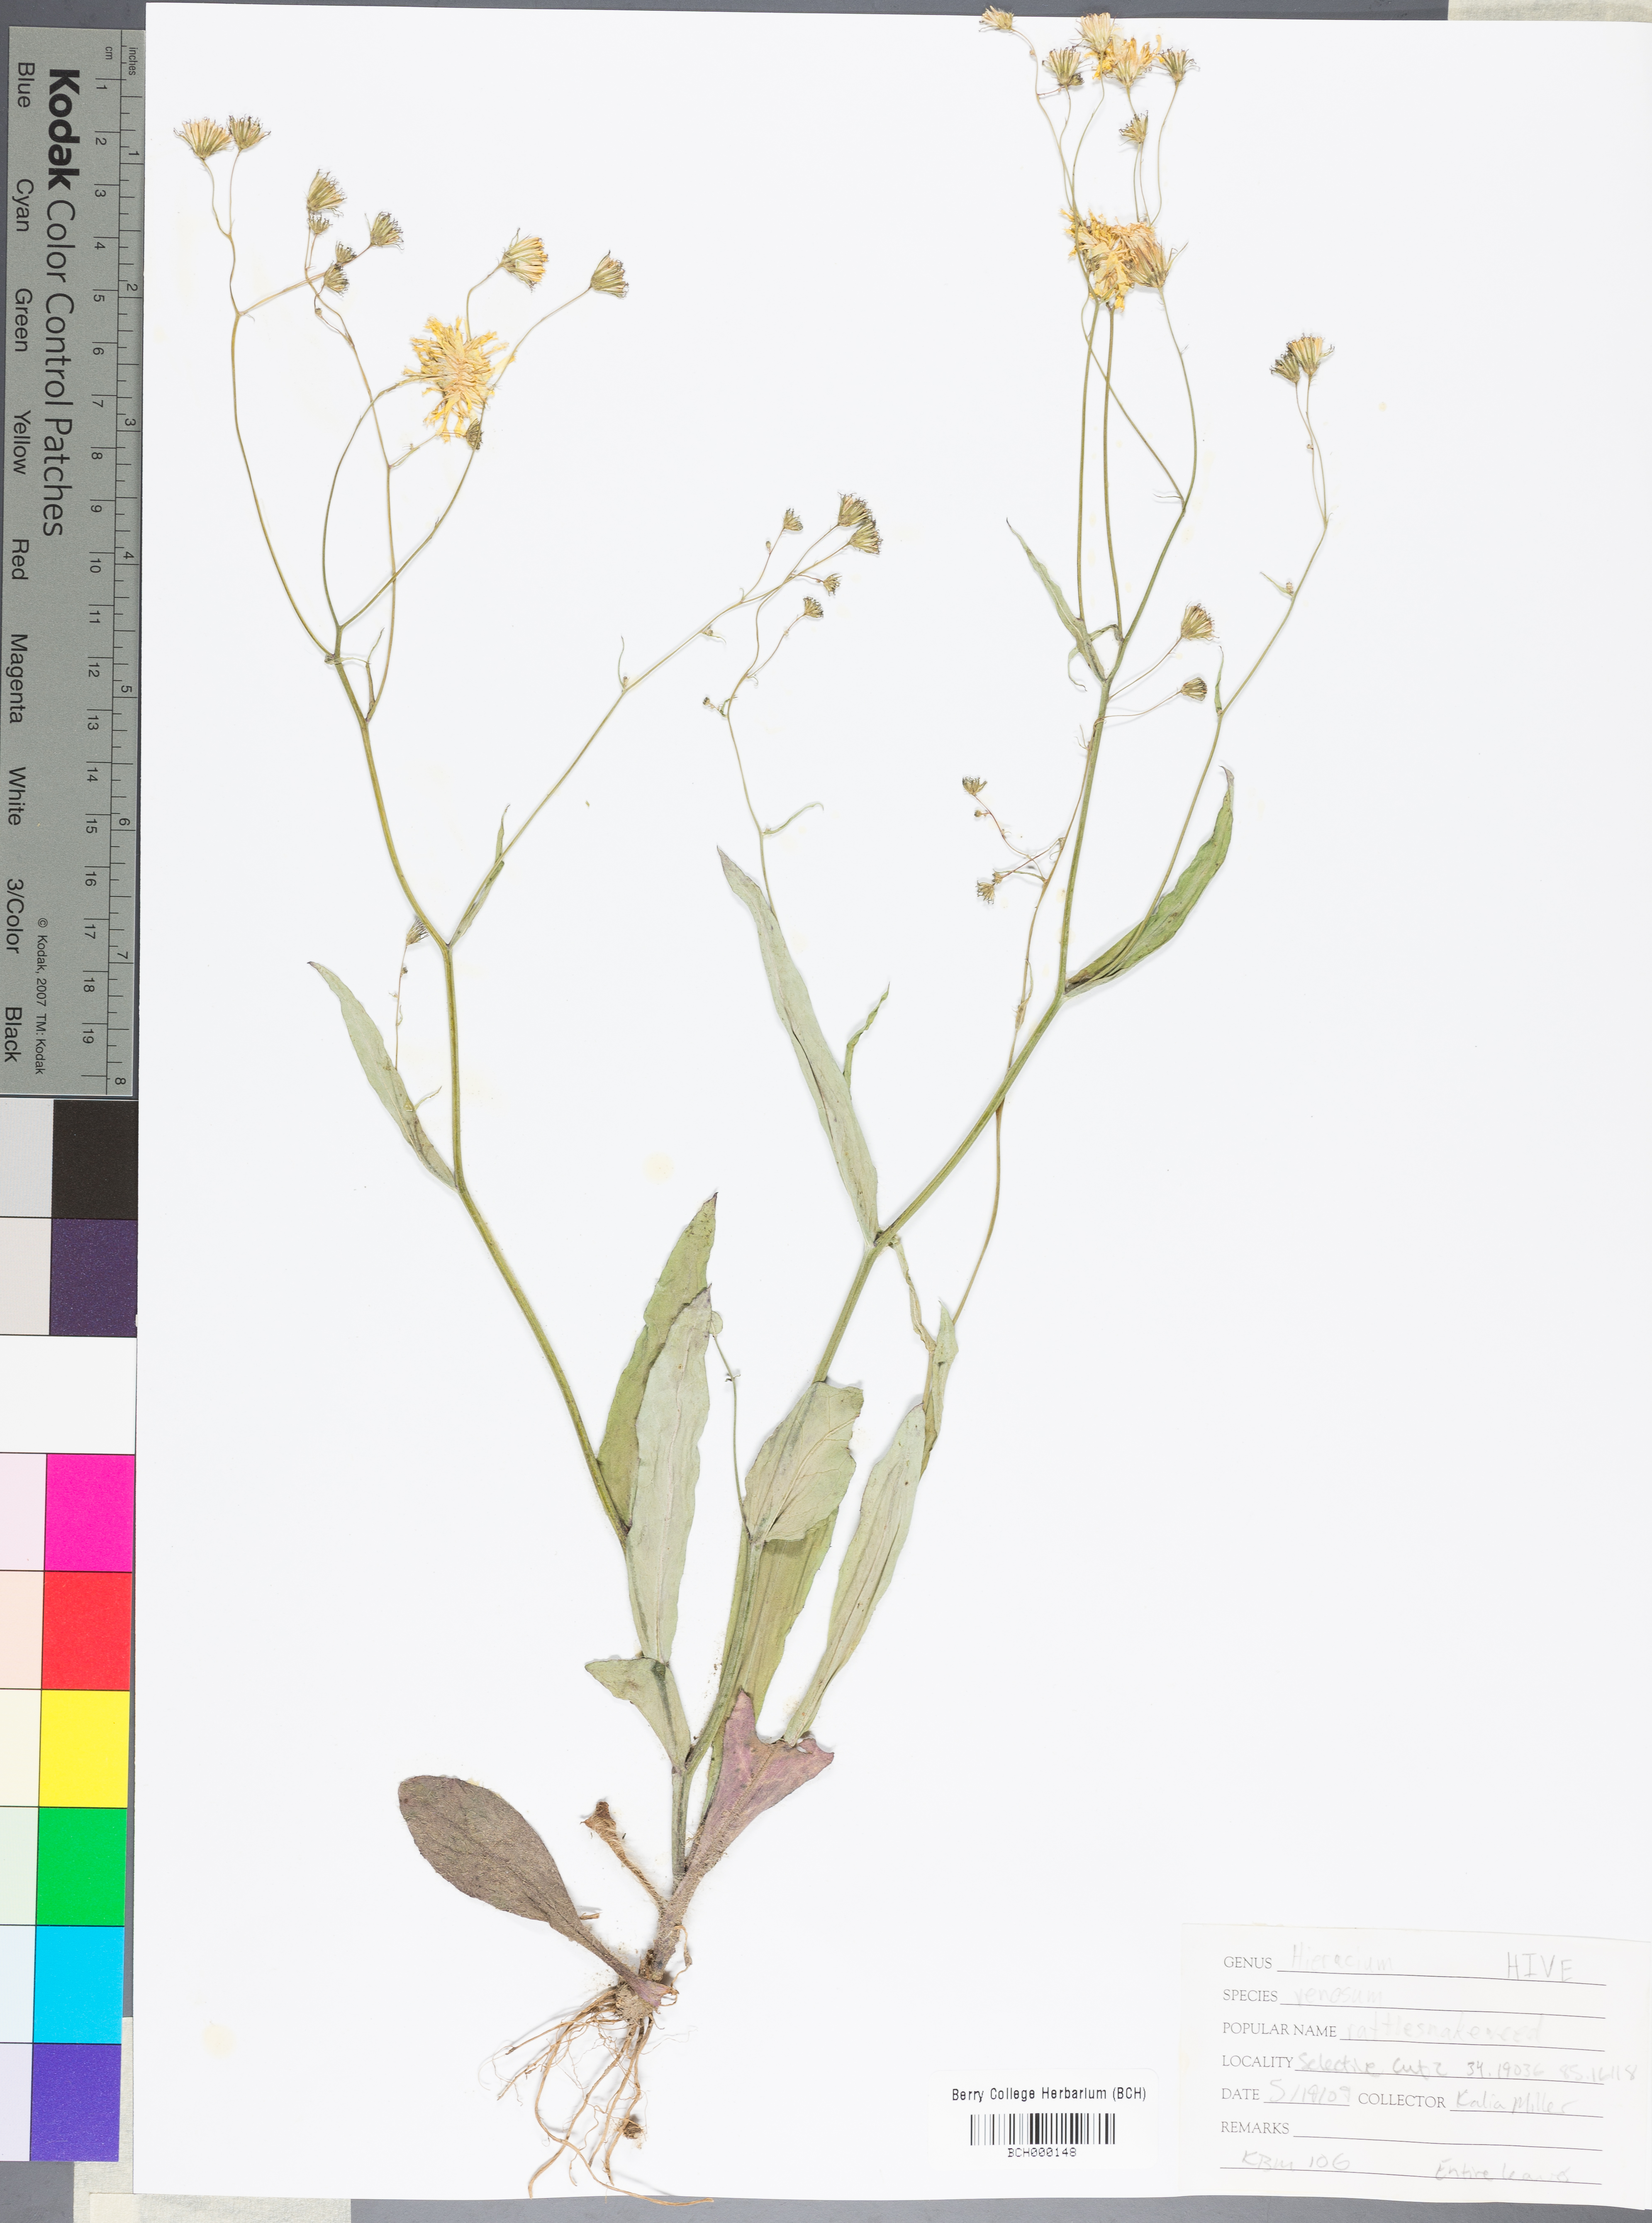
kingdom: Plantae
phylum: Tracheophyta
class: Magnoliopsida
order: Asterales
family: Asteraceae
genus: Hieracium
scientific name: Hieracium venosum
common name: Rattlesnake hawkweed
